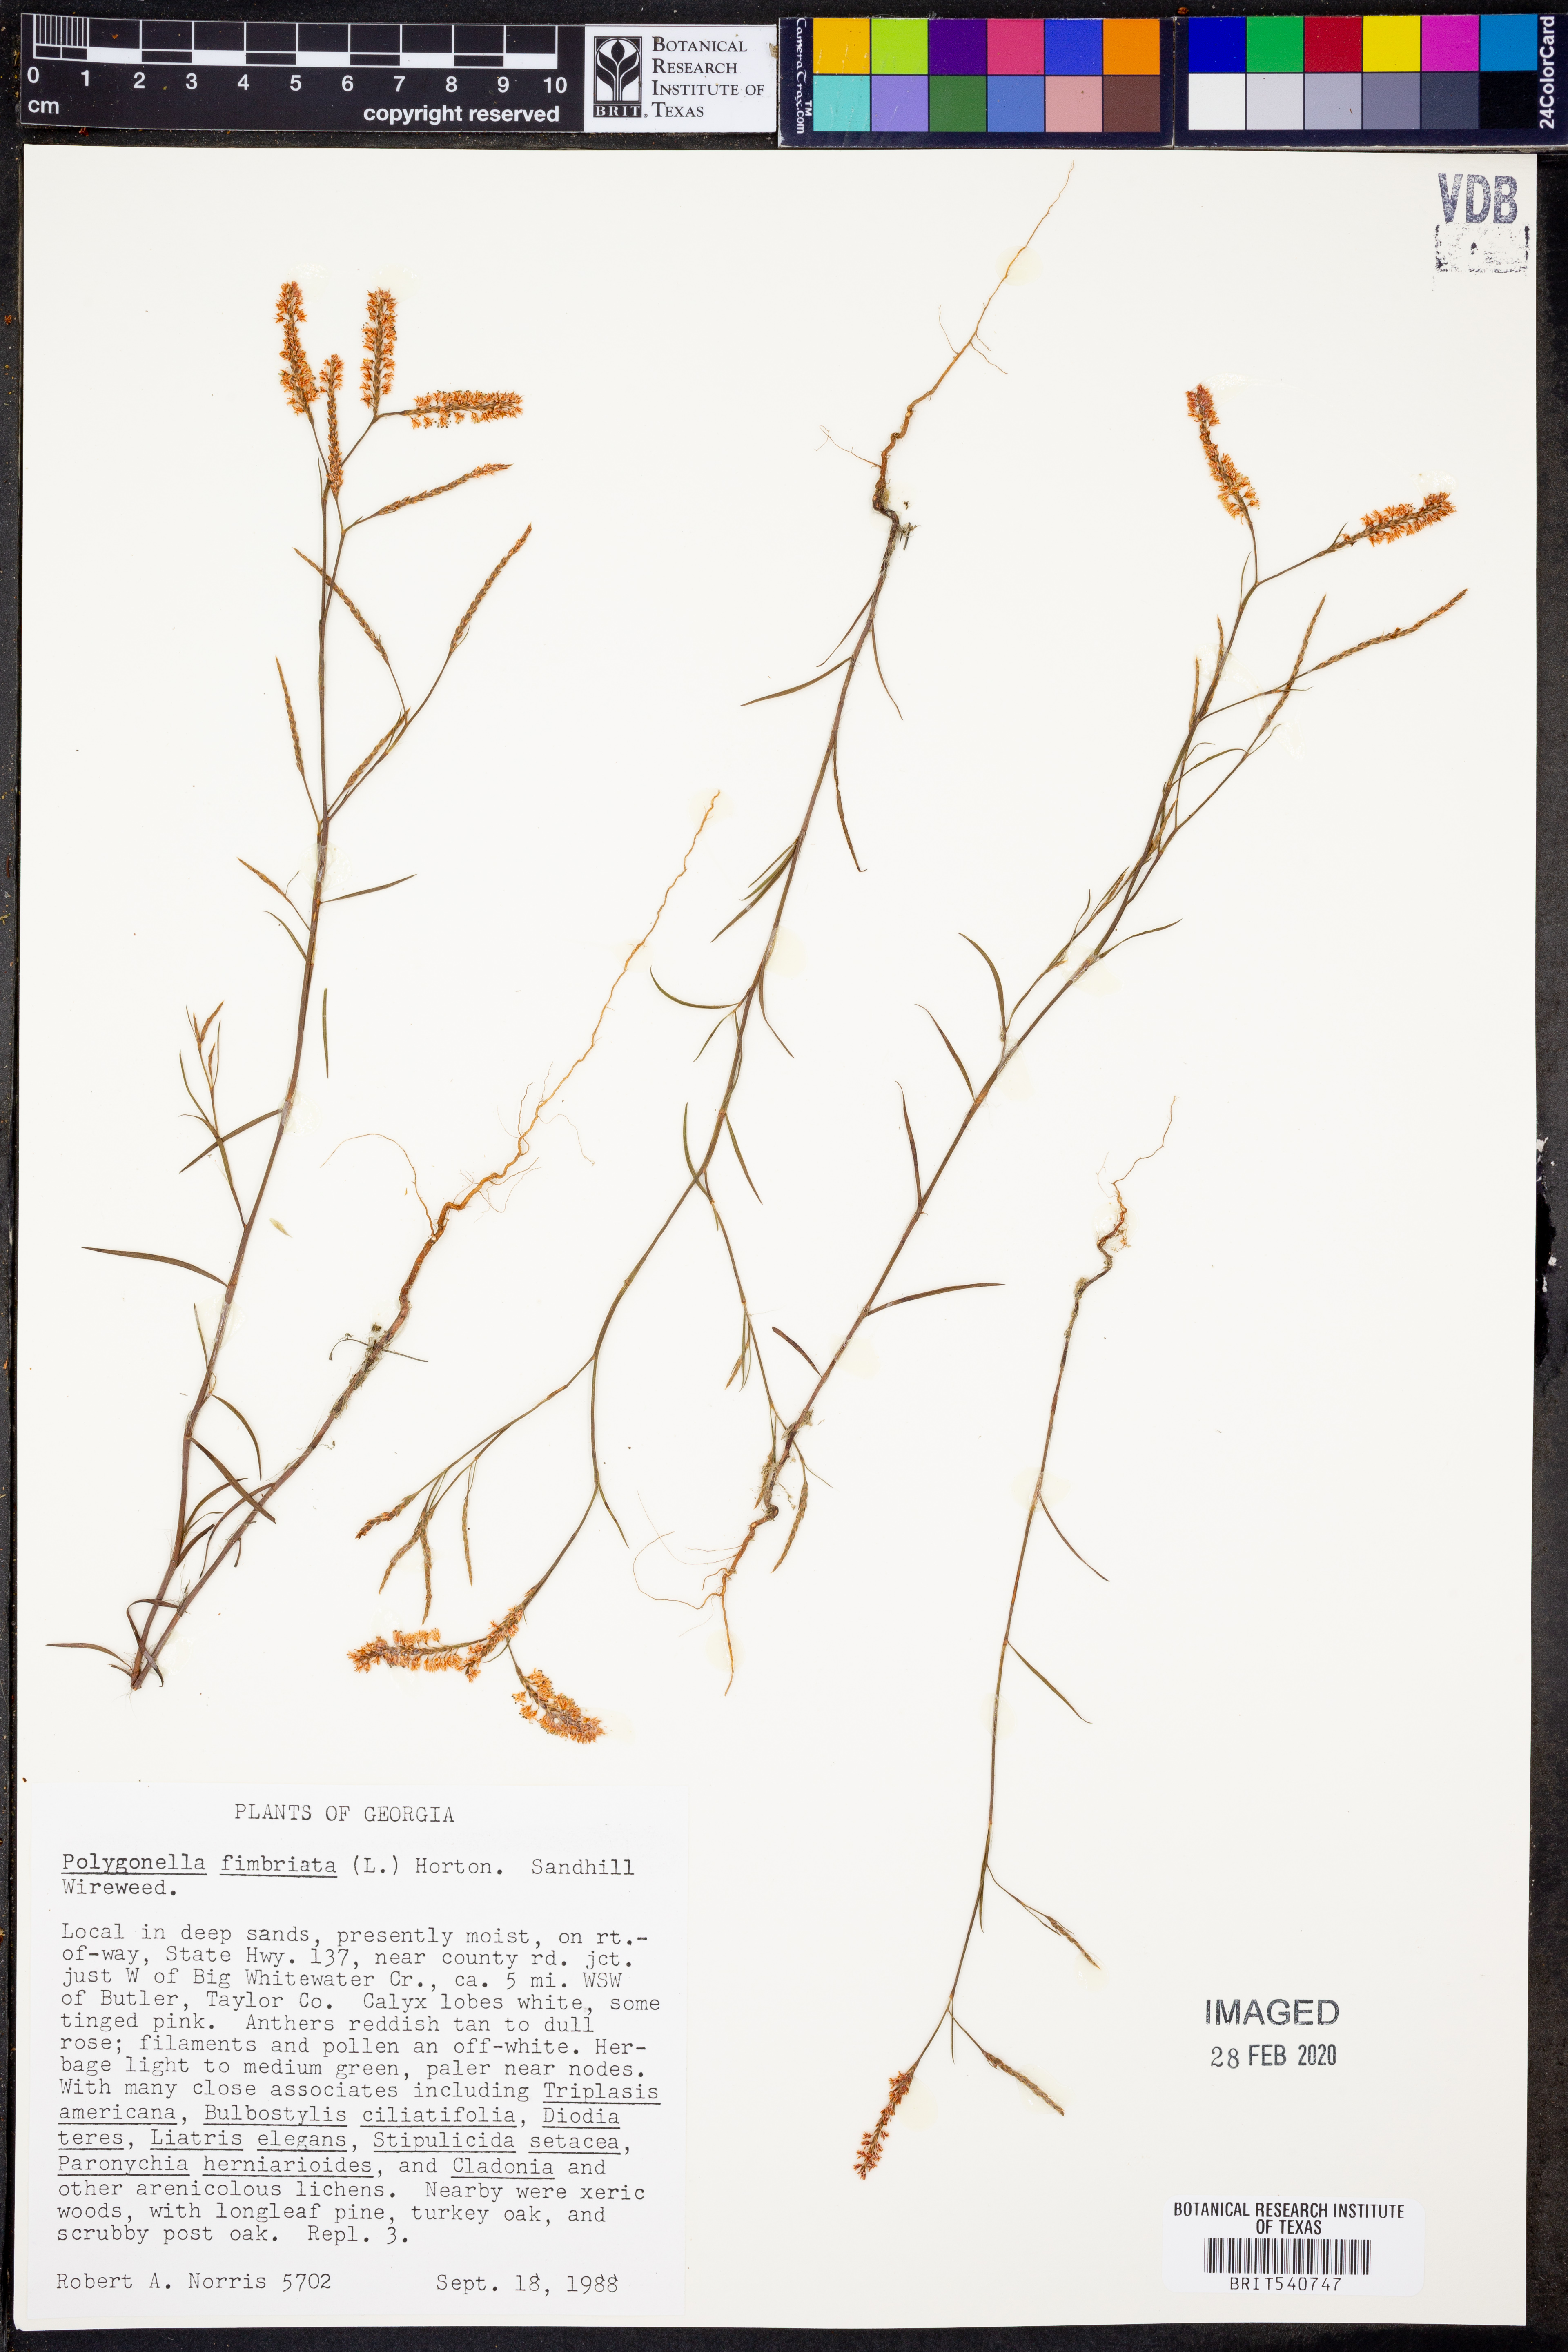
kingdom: Plantae
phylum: Tracheophyta
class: Magnoliopsida
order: Caryophyllales
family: Polygonaceae
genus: Polygonella
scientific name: Polygonella fimbriata
